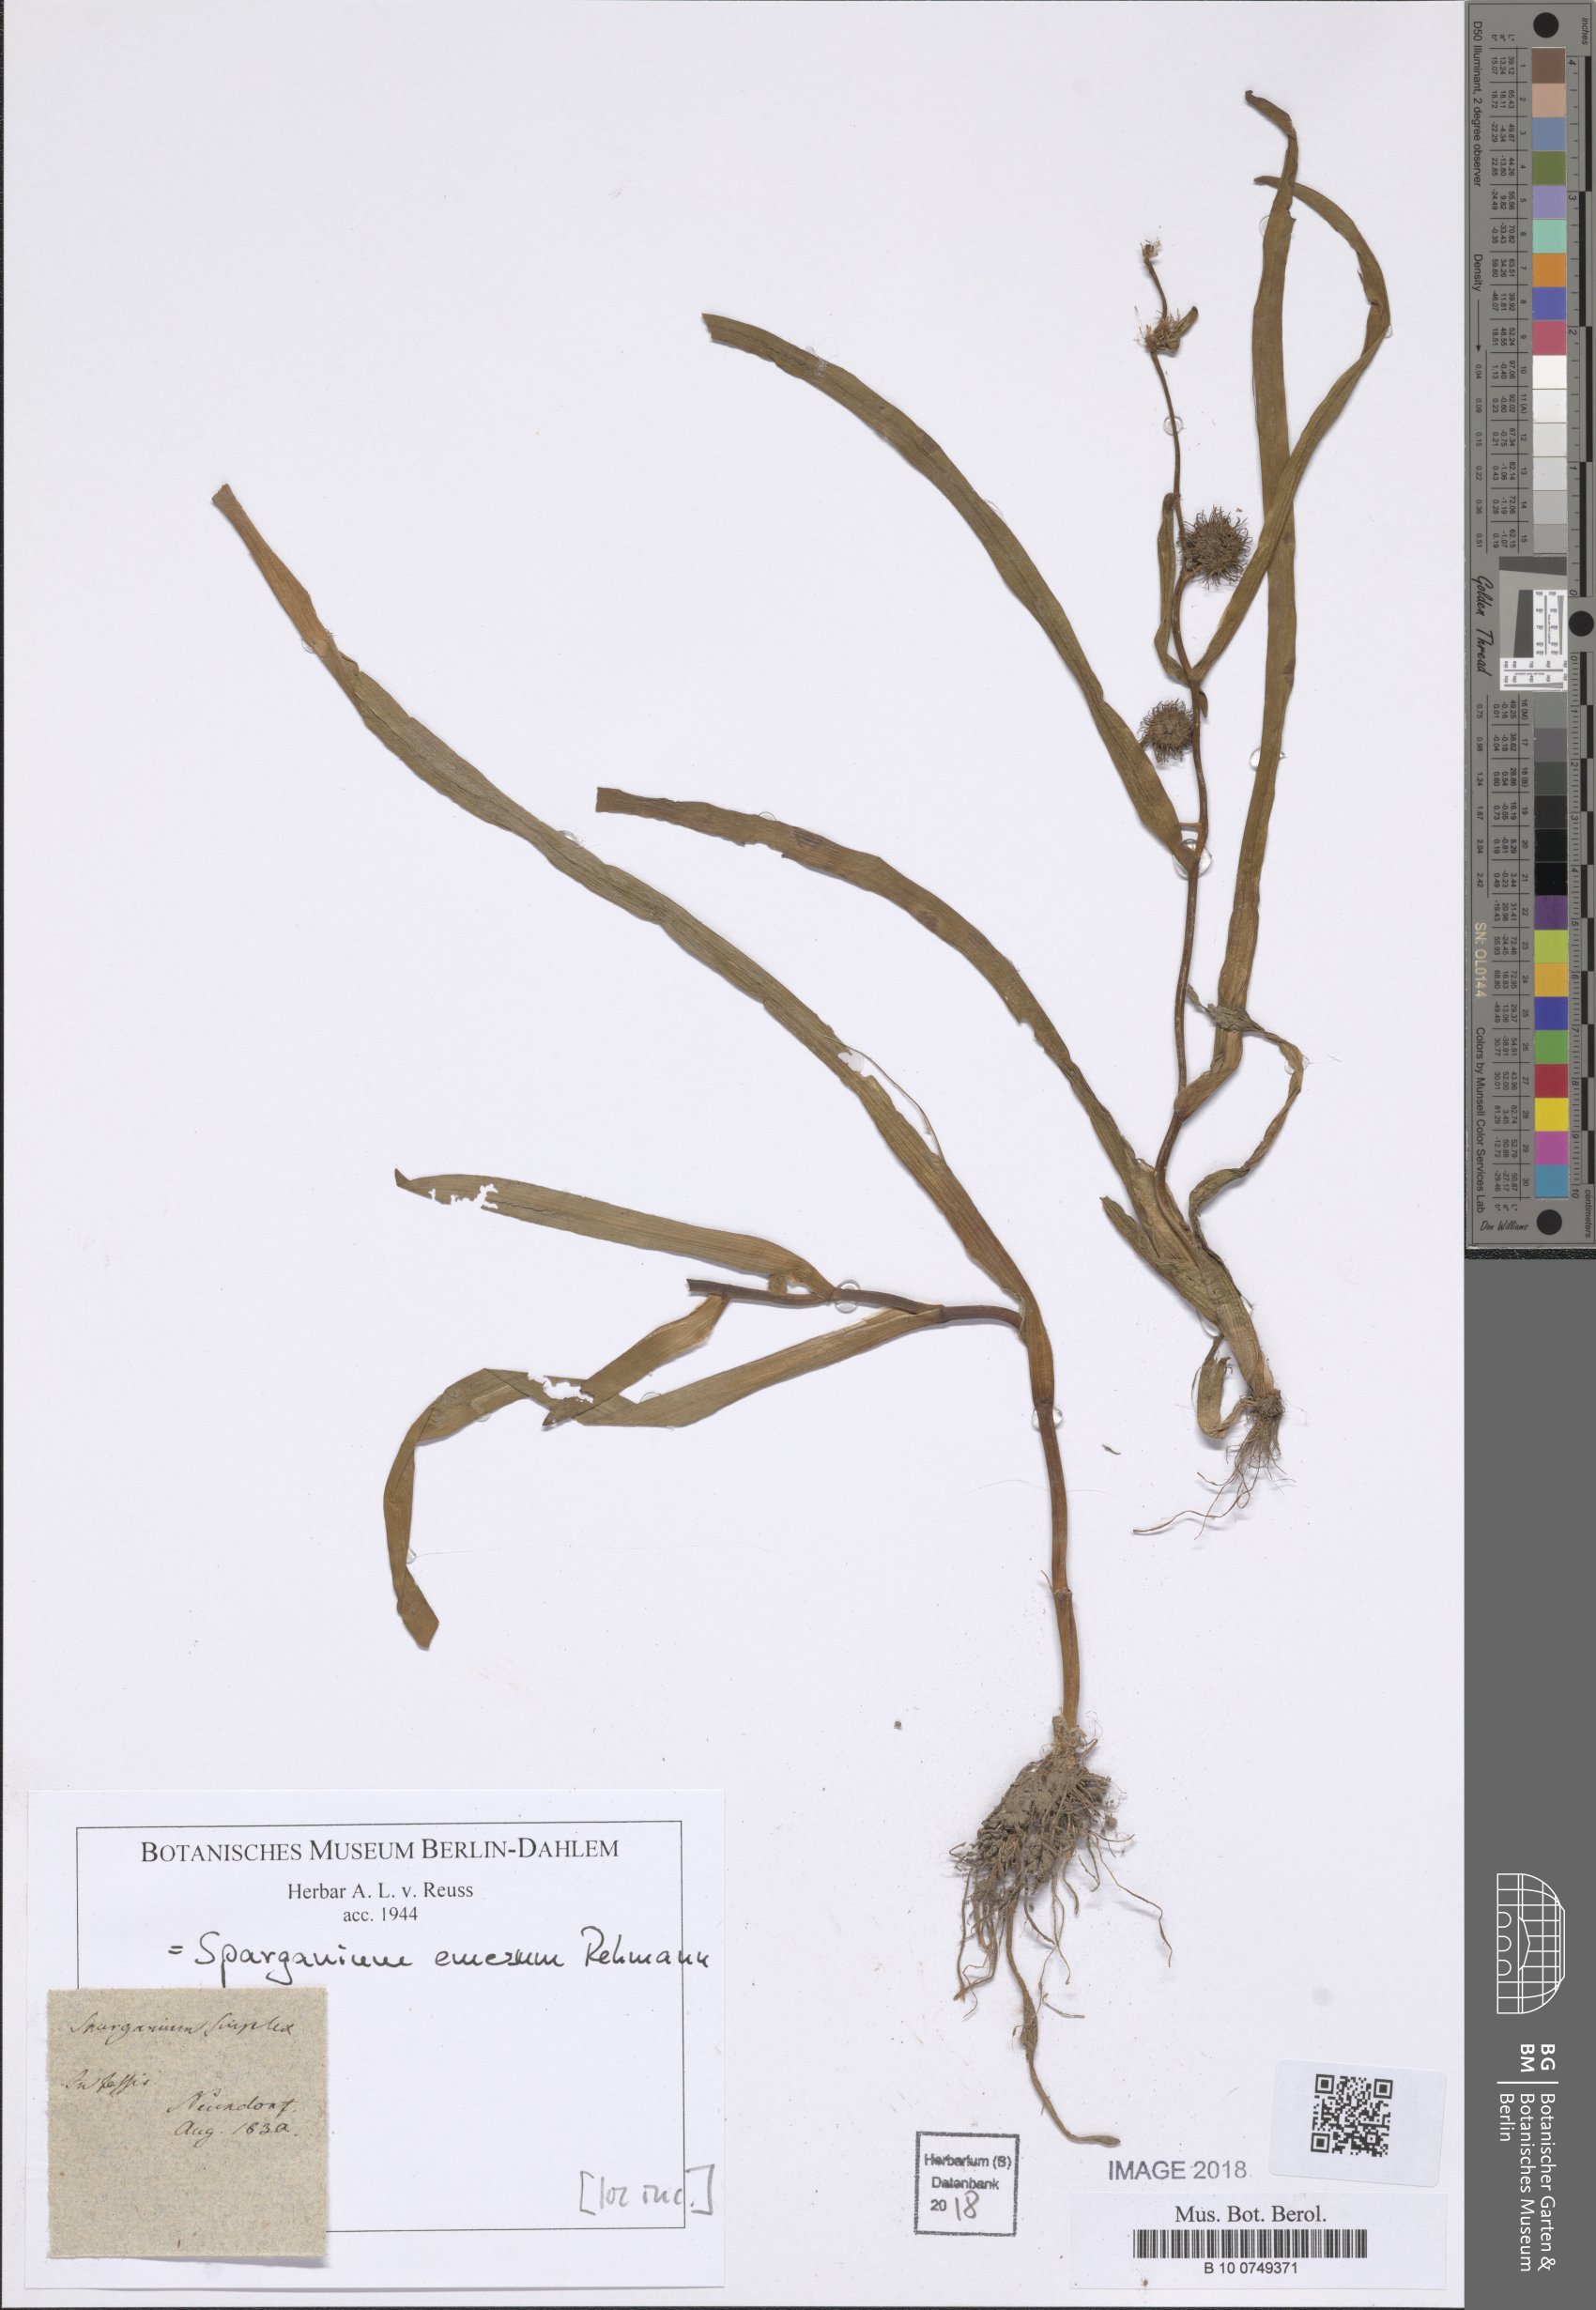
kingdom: Plantae
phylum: Tracheophyta
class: Liliopsida
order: Poales
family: Typhaceae
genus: Sparganium
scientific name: Sparganium emersum
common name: Unbranched bur-reed
